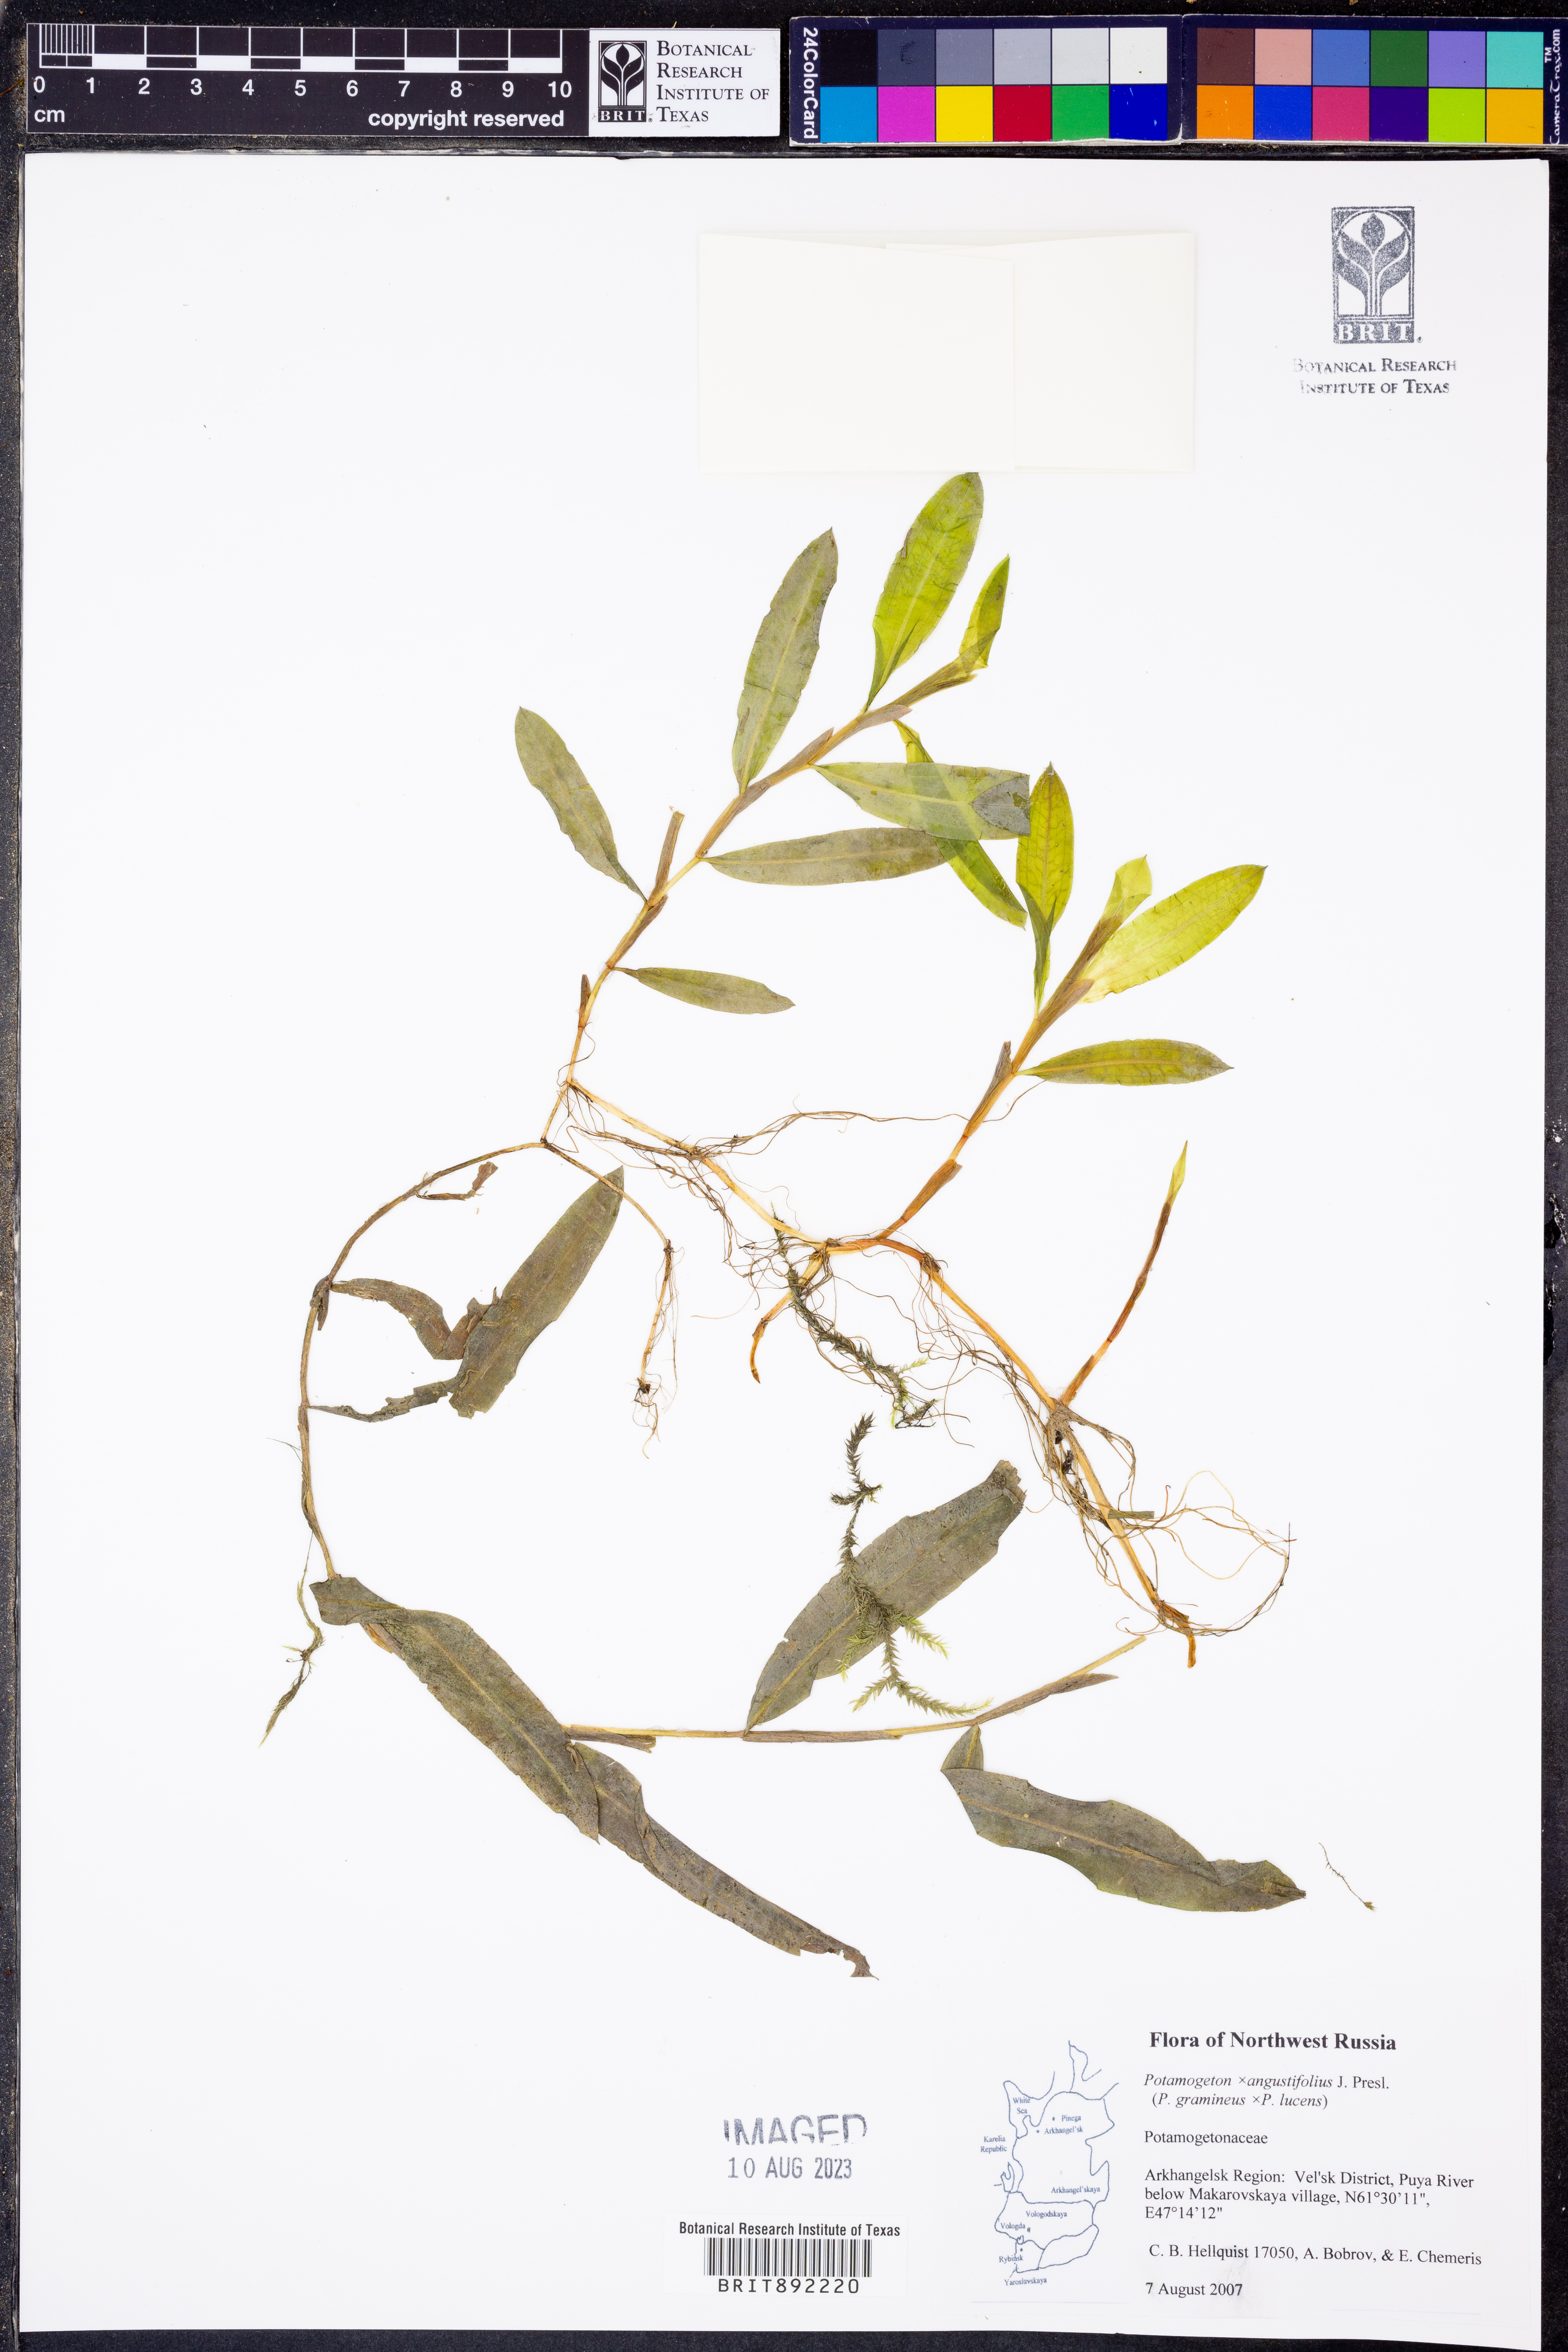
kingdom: Plantae
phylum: Tracheophyta
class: Liliopsida
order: Alismatales
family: Potamogetonaceae
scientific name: Potamogetonaceae
